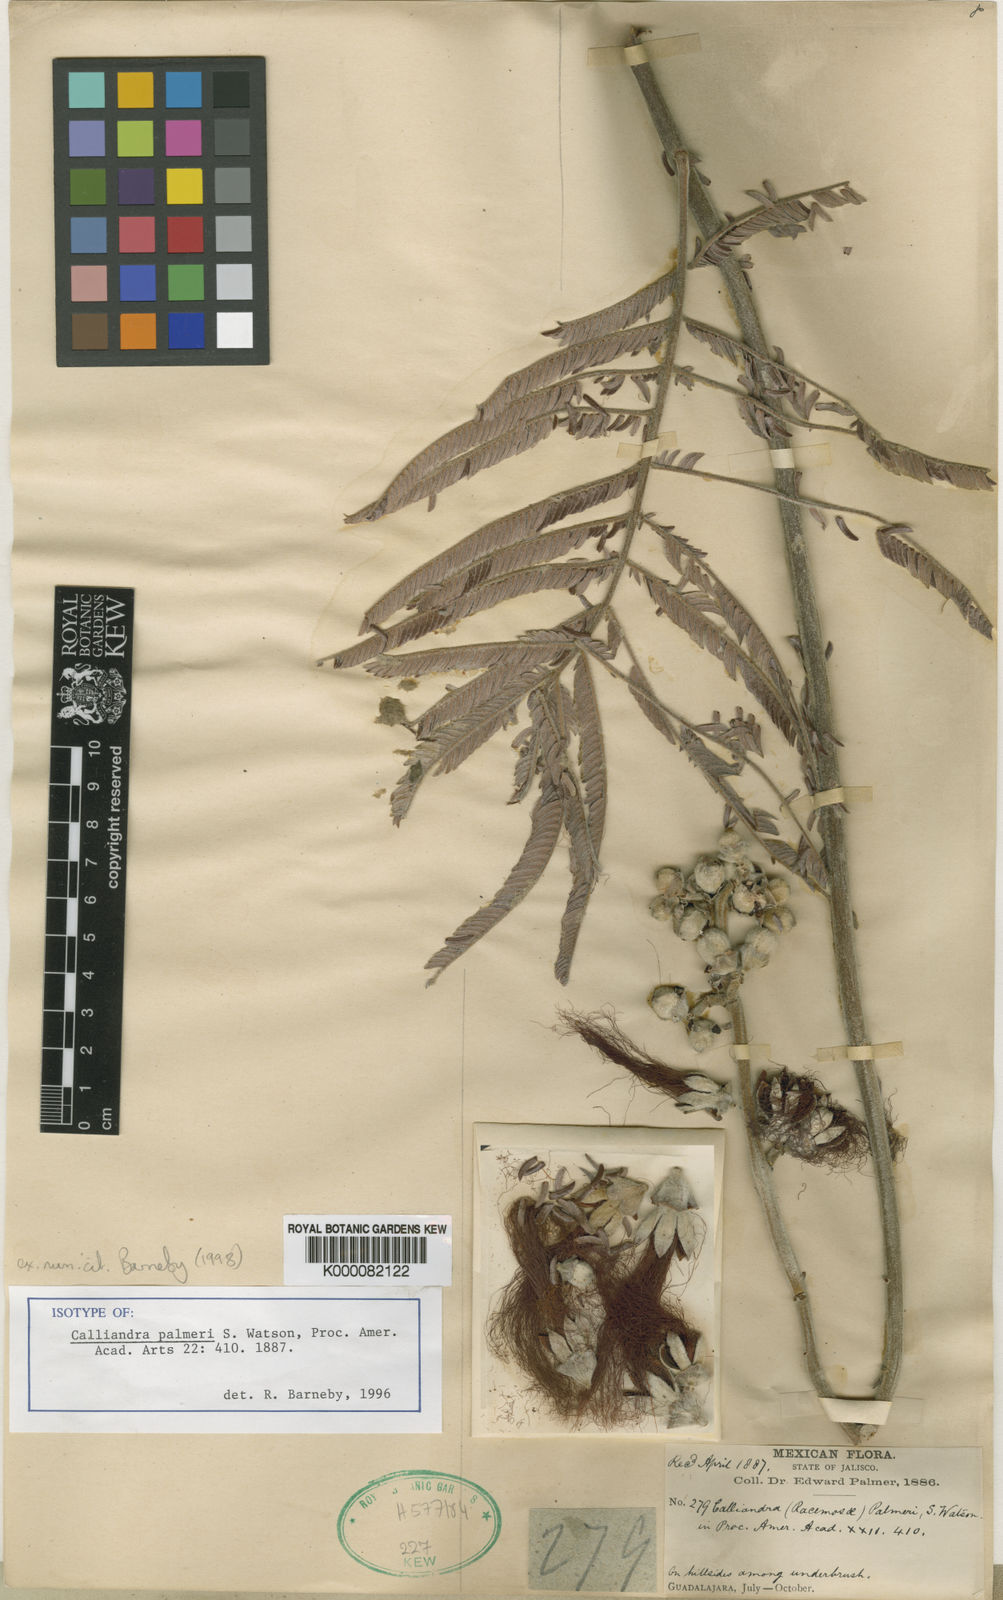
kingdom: Plantae
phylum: Tracheophyta
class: Magnoliopsida
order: Fabales
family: Fabaceae
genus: Calliandra
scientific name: Calliandra palmeri
